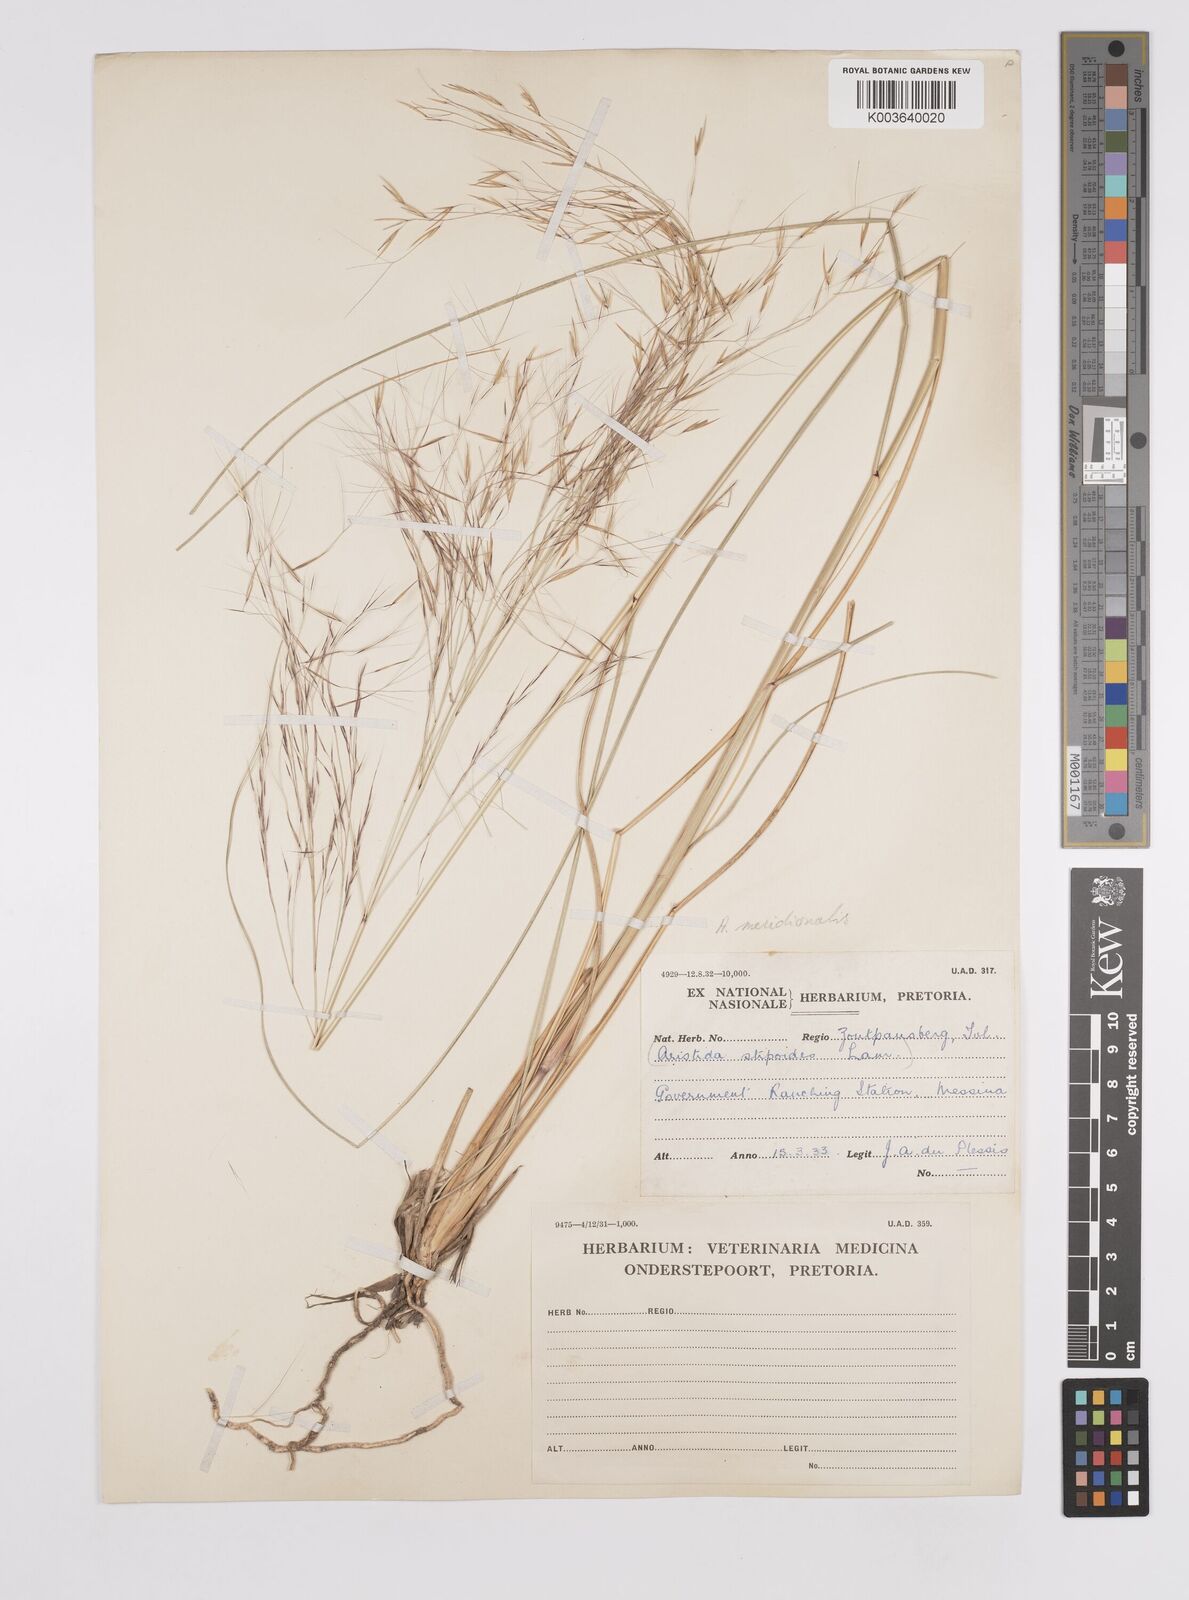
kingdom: Plantae
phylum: Tracheophyta
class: Liliopsida
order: Poales
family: Poaceae
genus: Aristida
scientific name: Aristida meridionalis
